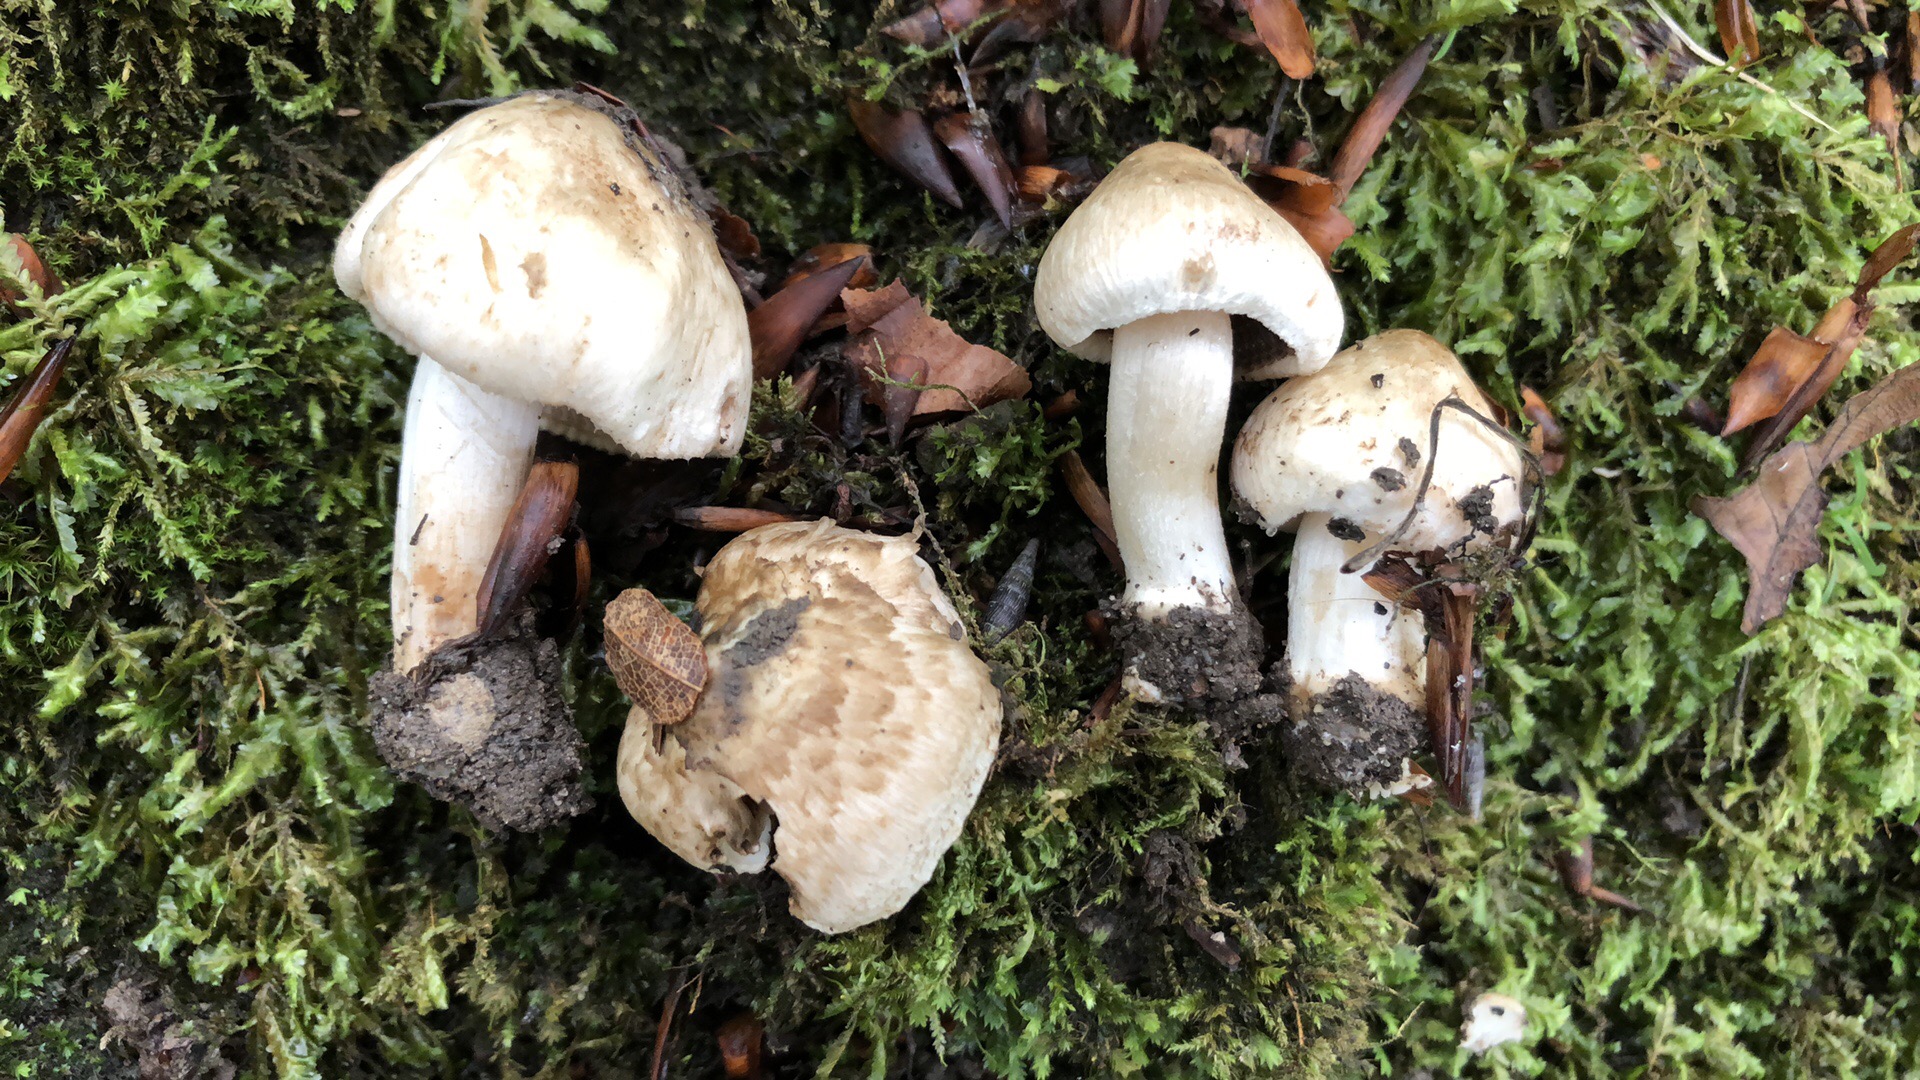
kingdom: Fungi
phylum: Basidiomycota
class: Agaricomycetes
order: Agaricales
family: Inocybaceae
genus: Inocybe
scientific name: Inocybe corydalina
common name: grønpuklet trævlhat
